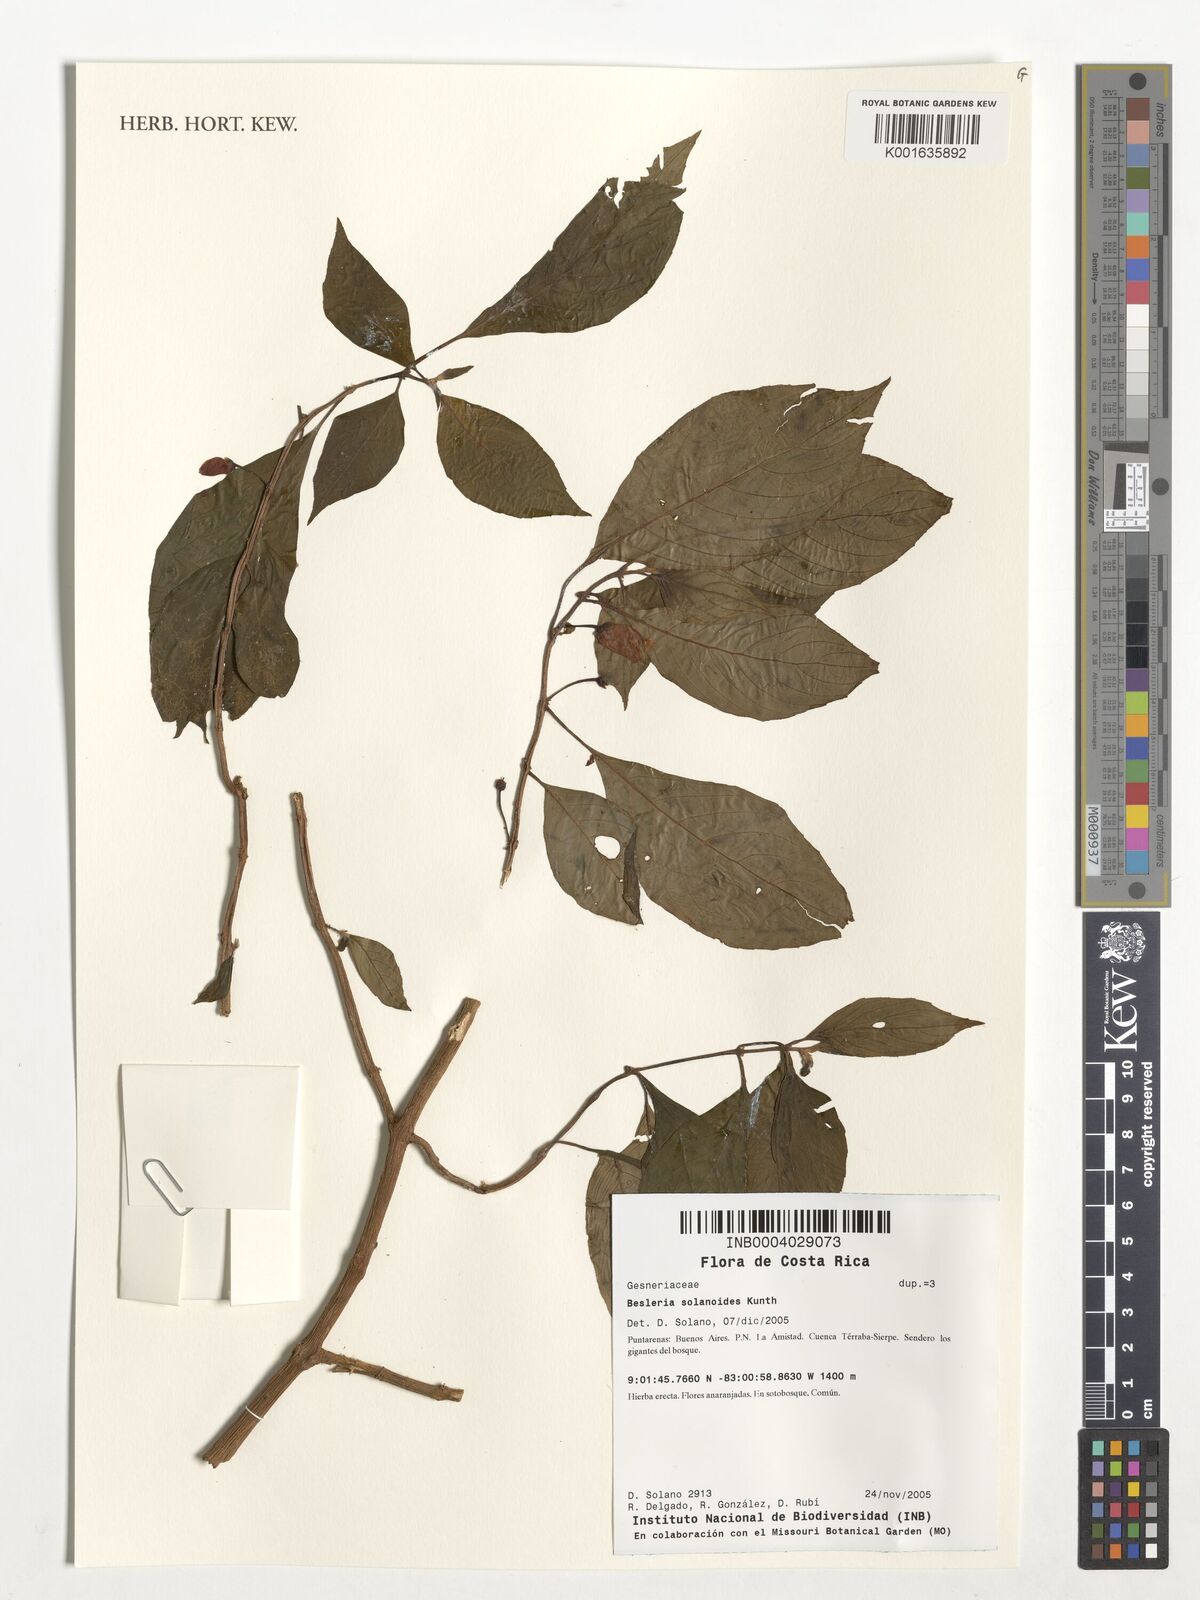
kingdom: Plantae
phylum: Tracheophyta
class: Magnoliopsida
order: Lamiales
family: Gesneriaceae
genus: Besleria
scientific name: Besleria solanoides
